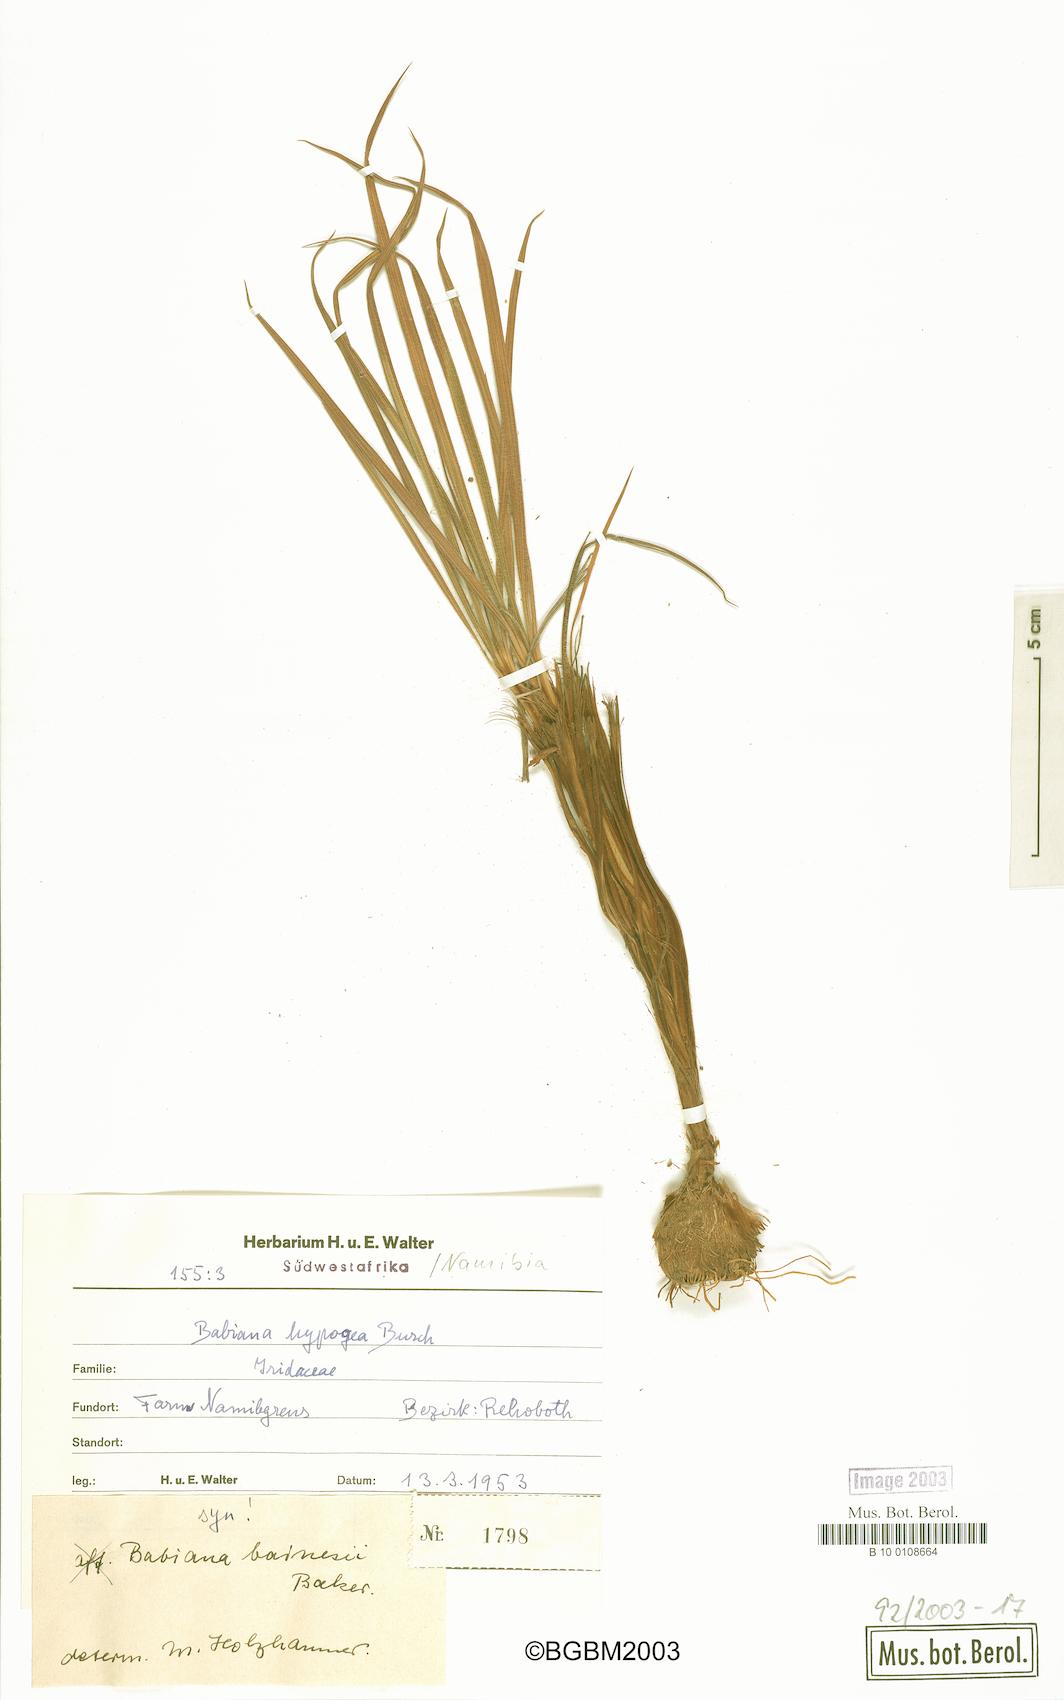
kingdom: Plantae
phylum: Tracheophyta
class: Liliopsida
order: Asparagales
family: Iridaceae
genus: Babiana
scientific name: Babiana hypogaea
